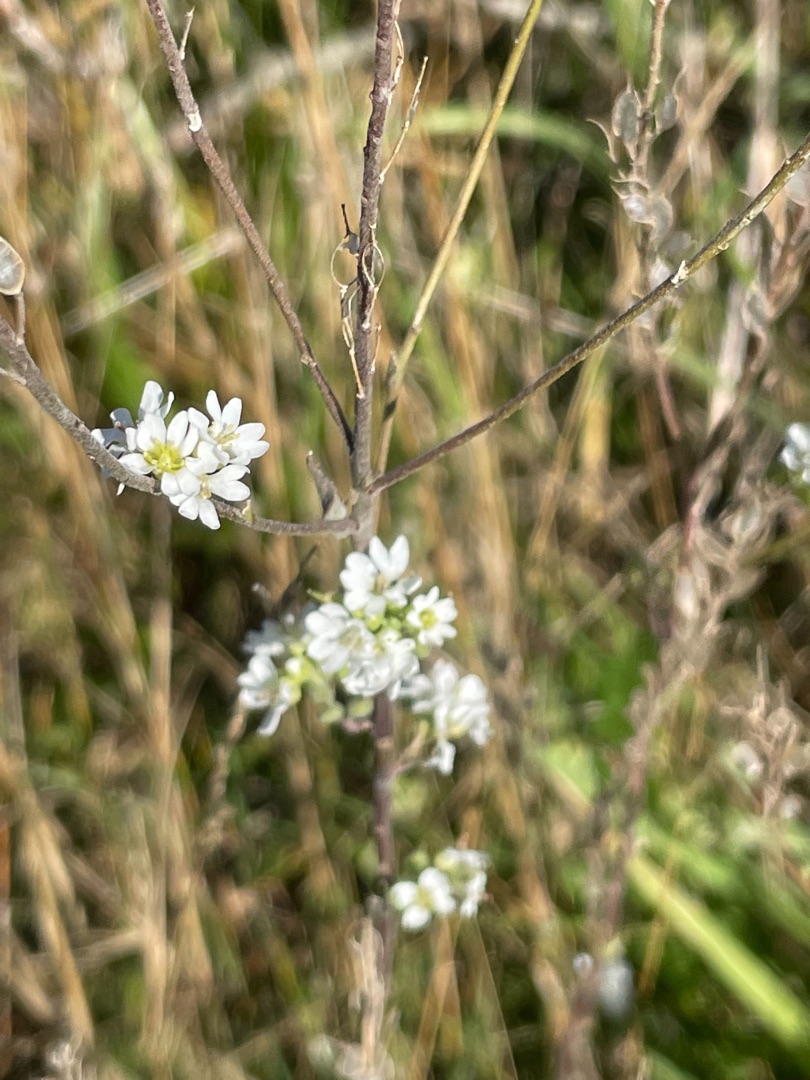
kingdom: Plantae
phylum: Tracheophyta
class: Magnoliopsida
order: Brassicales
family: Brassicaceae
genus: Berteroa
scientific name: Berteroa incana
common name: Kløvplade
